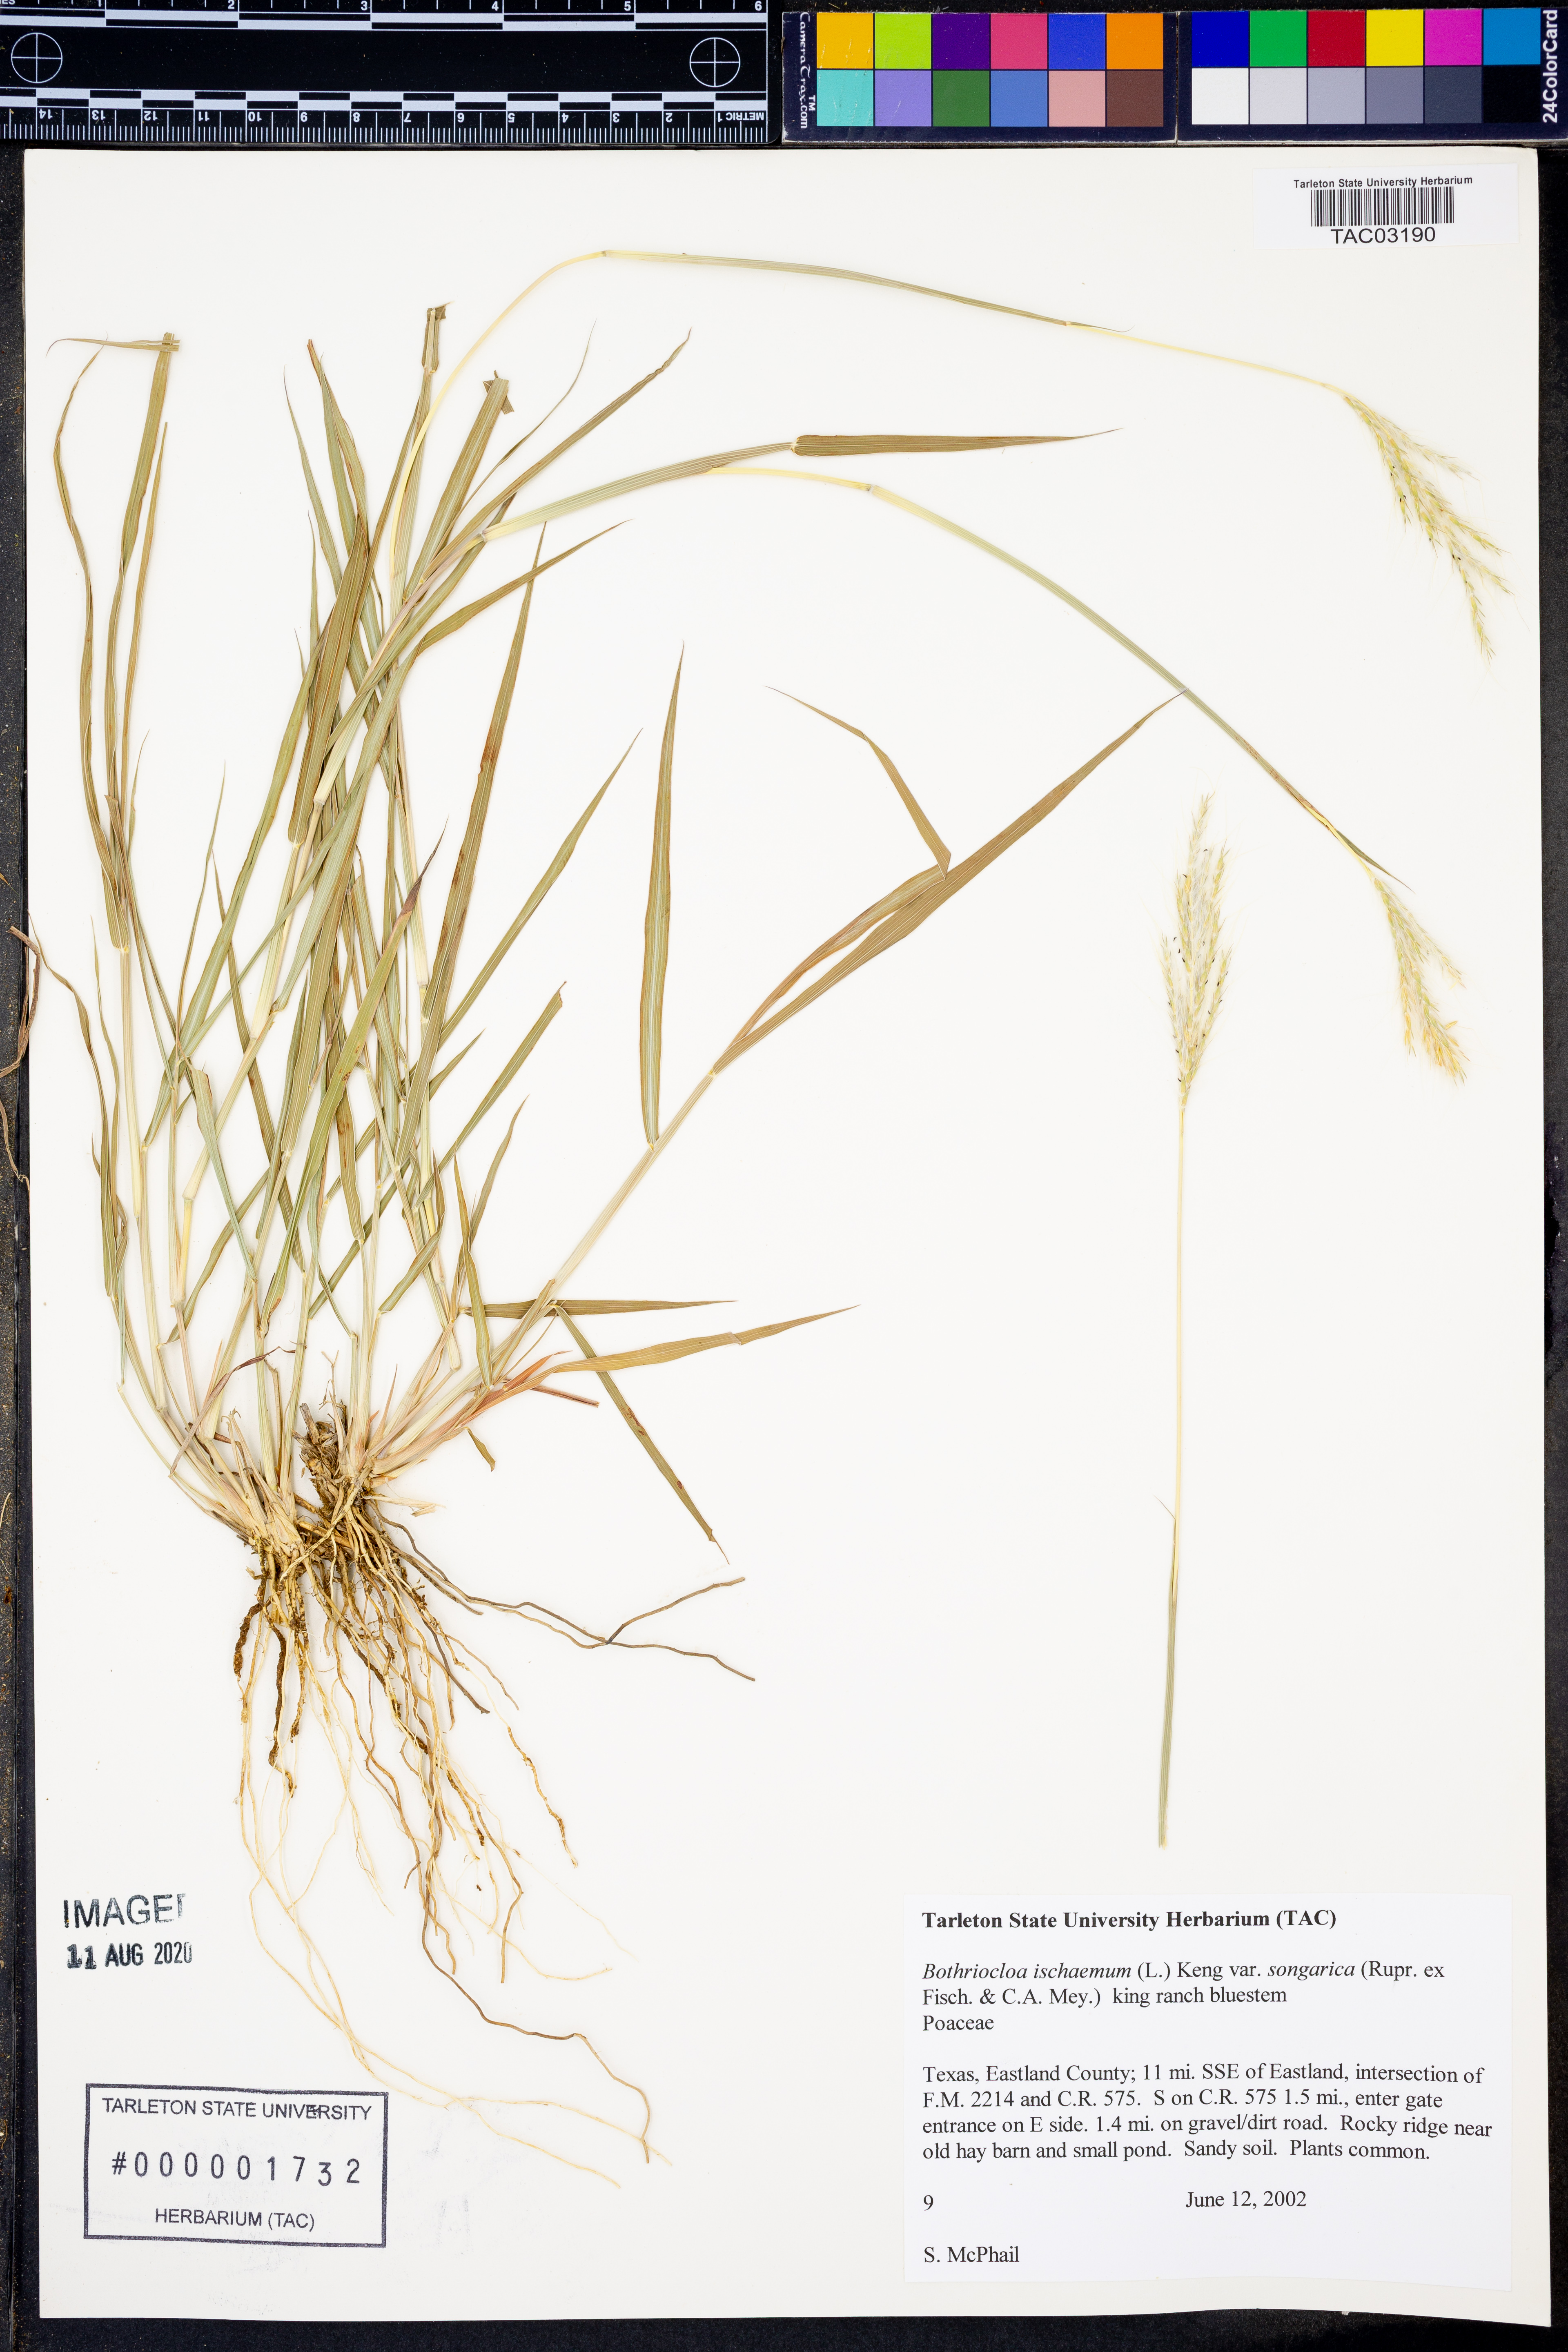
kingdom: Plantae
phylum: Tracheophyta
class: Liliopsida
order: Poales
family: Poaceae
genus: Bothriochloa
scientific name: Bothriochloa ischaemum
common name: Yellow bluestem
